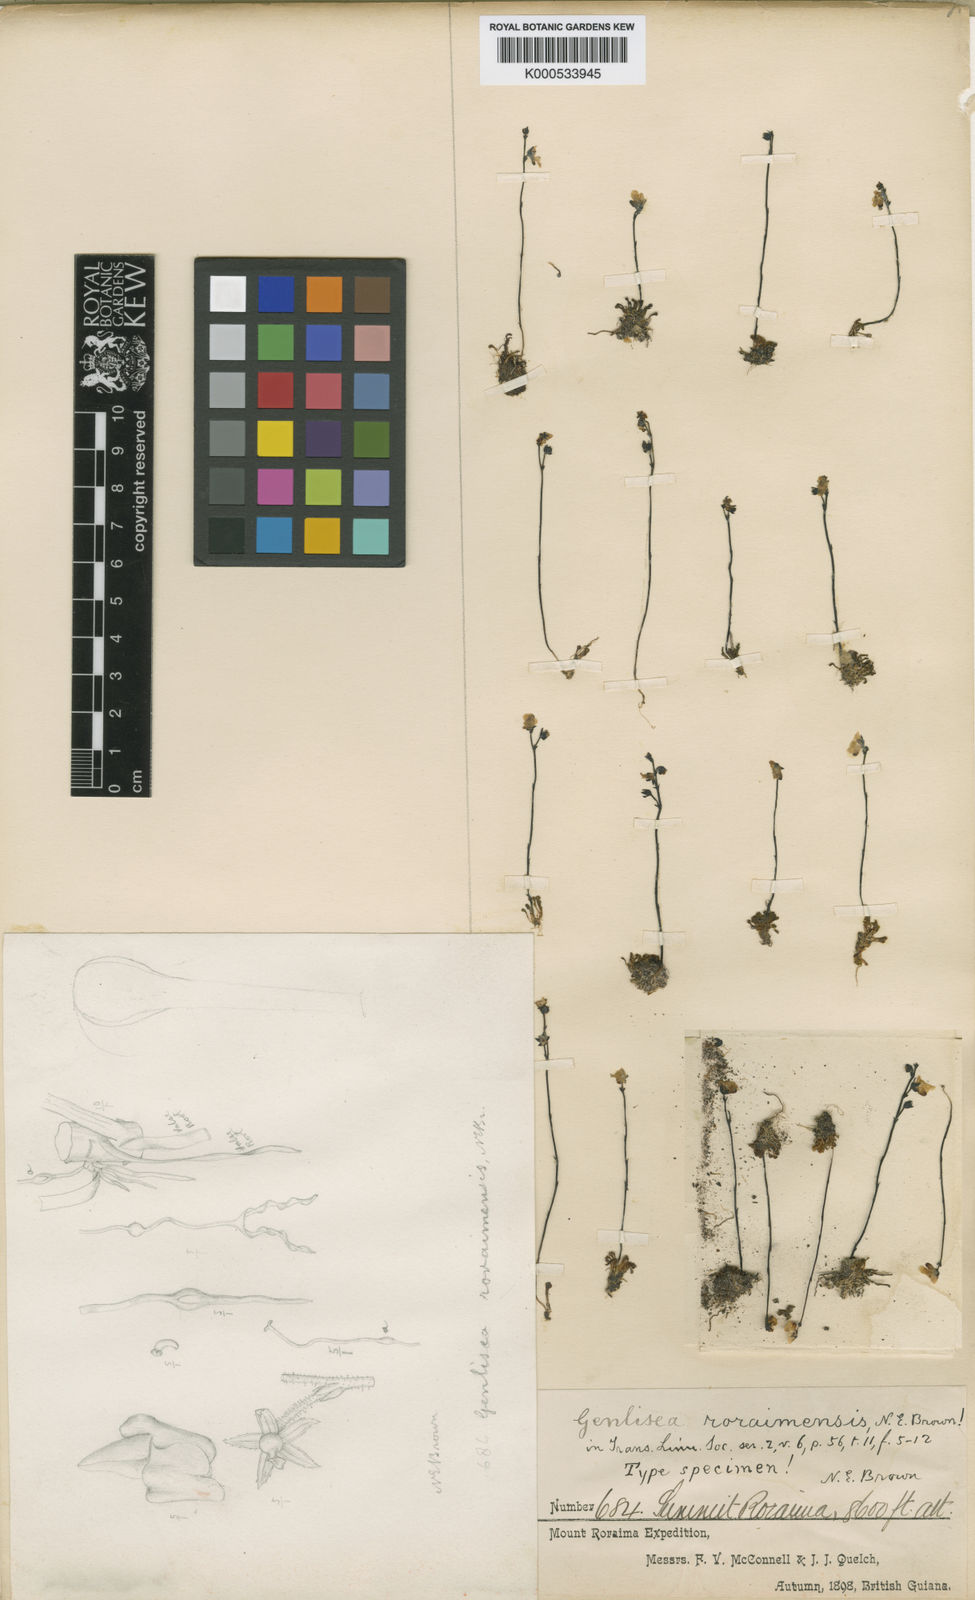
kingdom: Plantae
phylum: Tracheophyta
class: Magnoliopsida
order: Lamiales
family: Lentibulariaceae
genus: Genlisea
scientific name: Genlisea roraimensis
